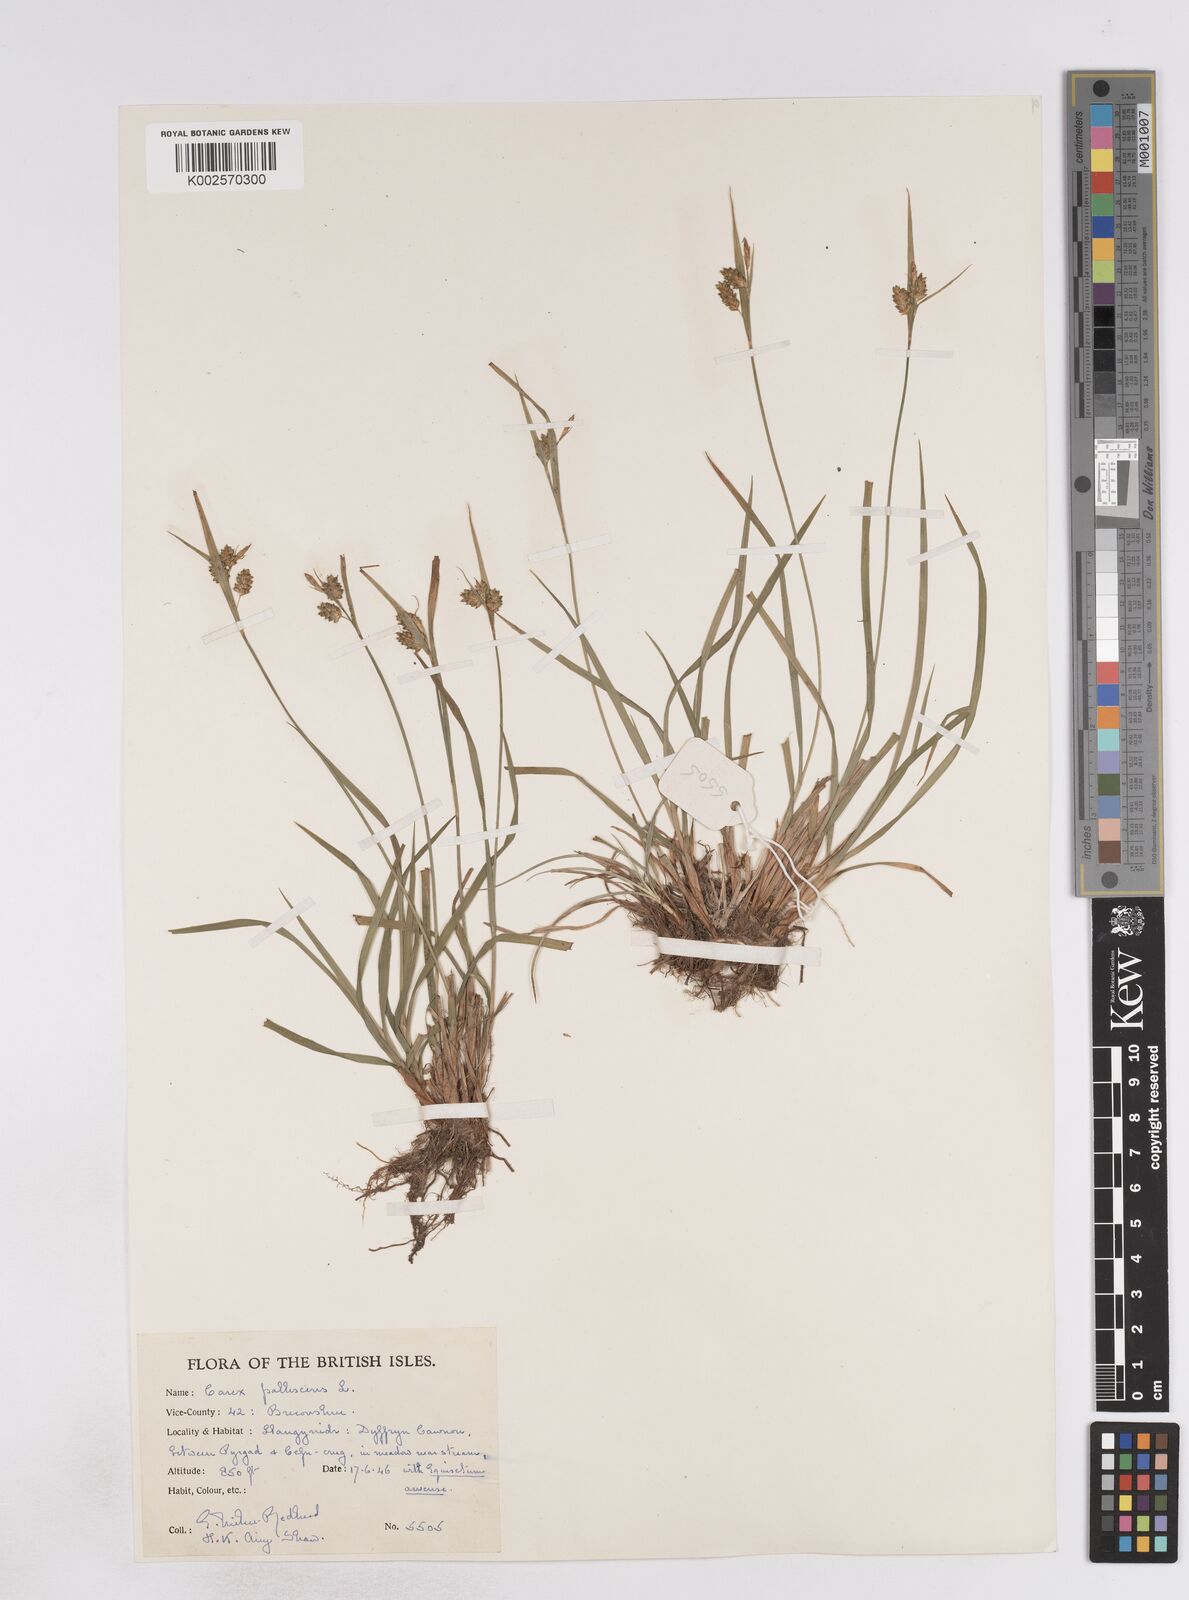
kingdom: Plantae
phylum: Tracheophyta
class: Liliopsida
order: Poales
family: Cyperaceae
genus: Carex
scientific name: Carex pallescens
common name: Pale sedge
